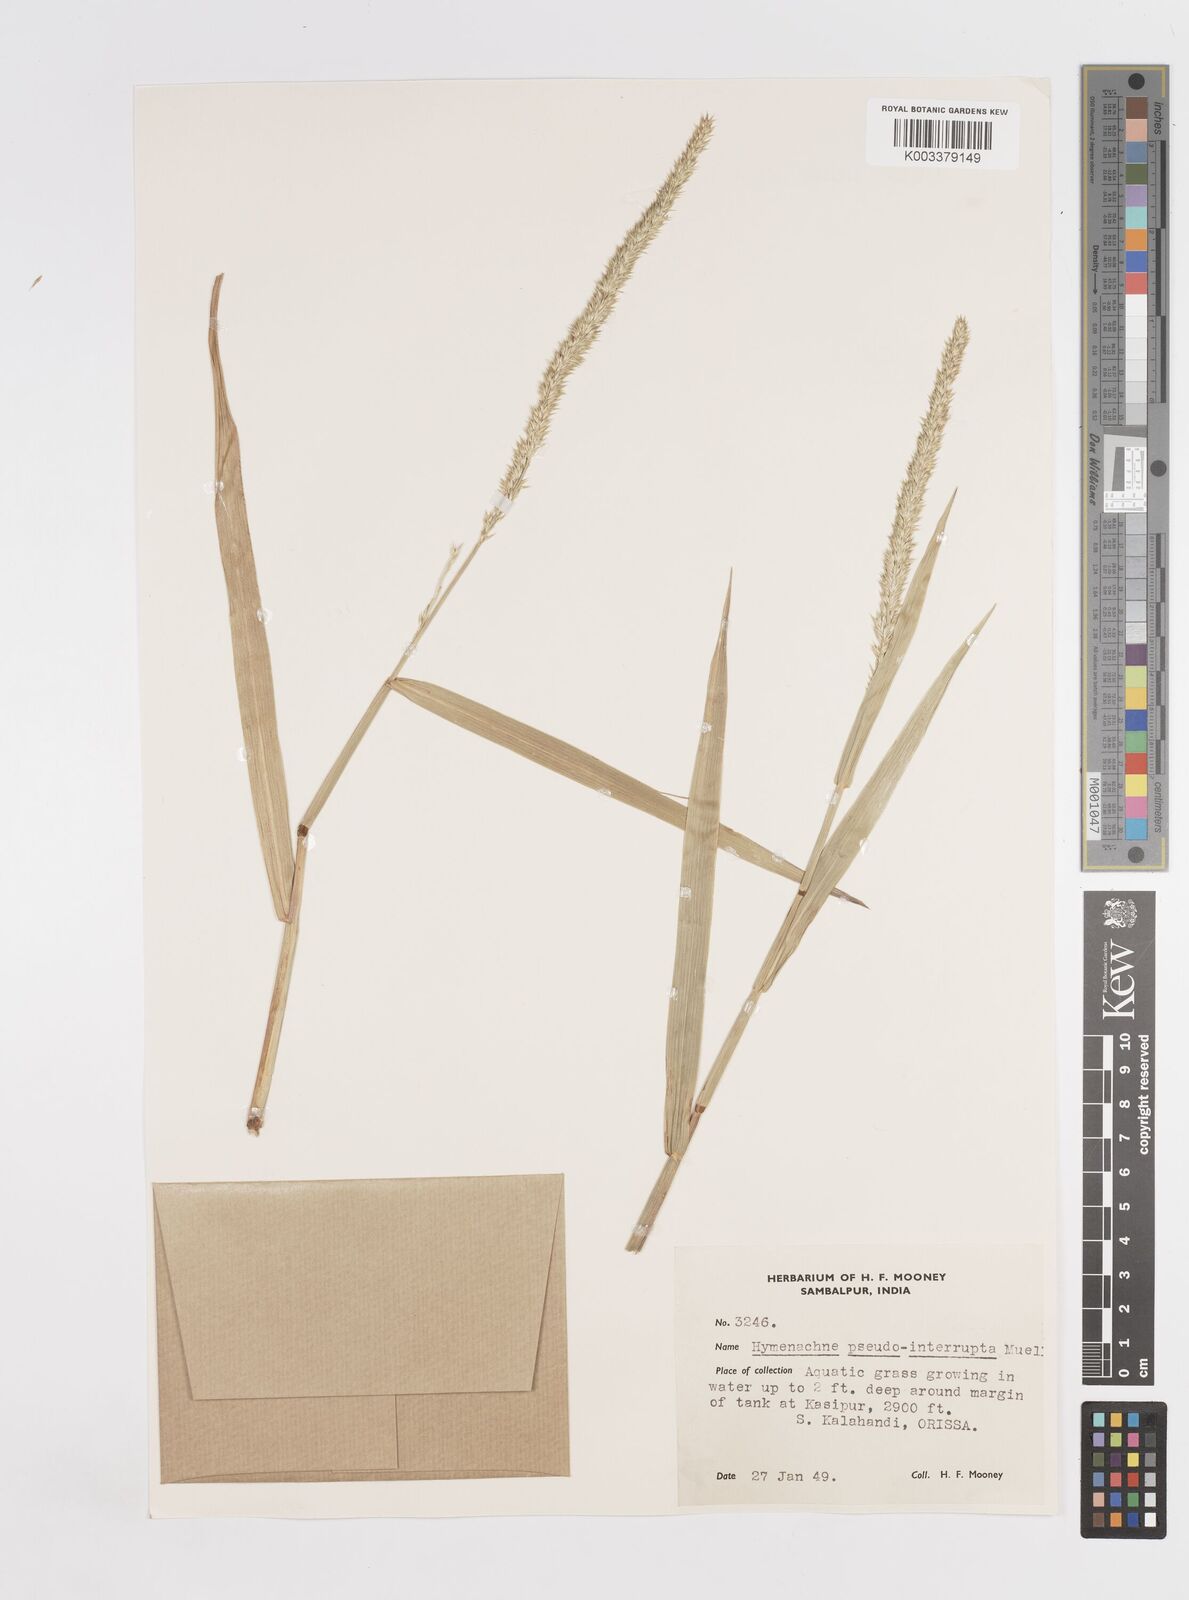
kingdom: Plantae
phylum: Tracheophyta
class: Liliopsida
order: Poales
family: Poaceae
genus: Hymenachne
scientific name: Hymenachne amplexicaulis
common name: Olive hymenachne
